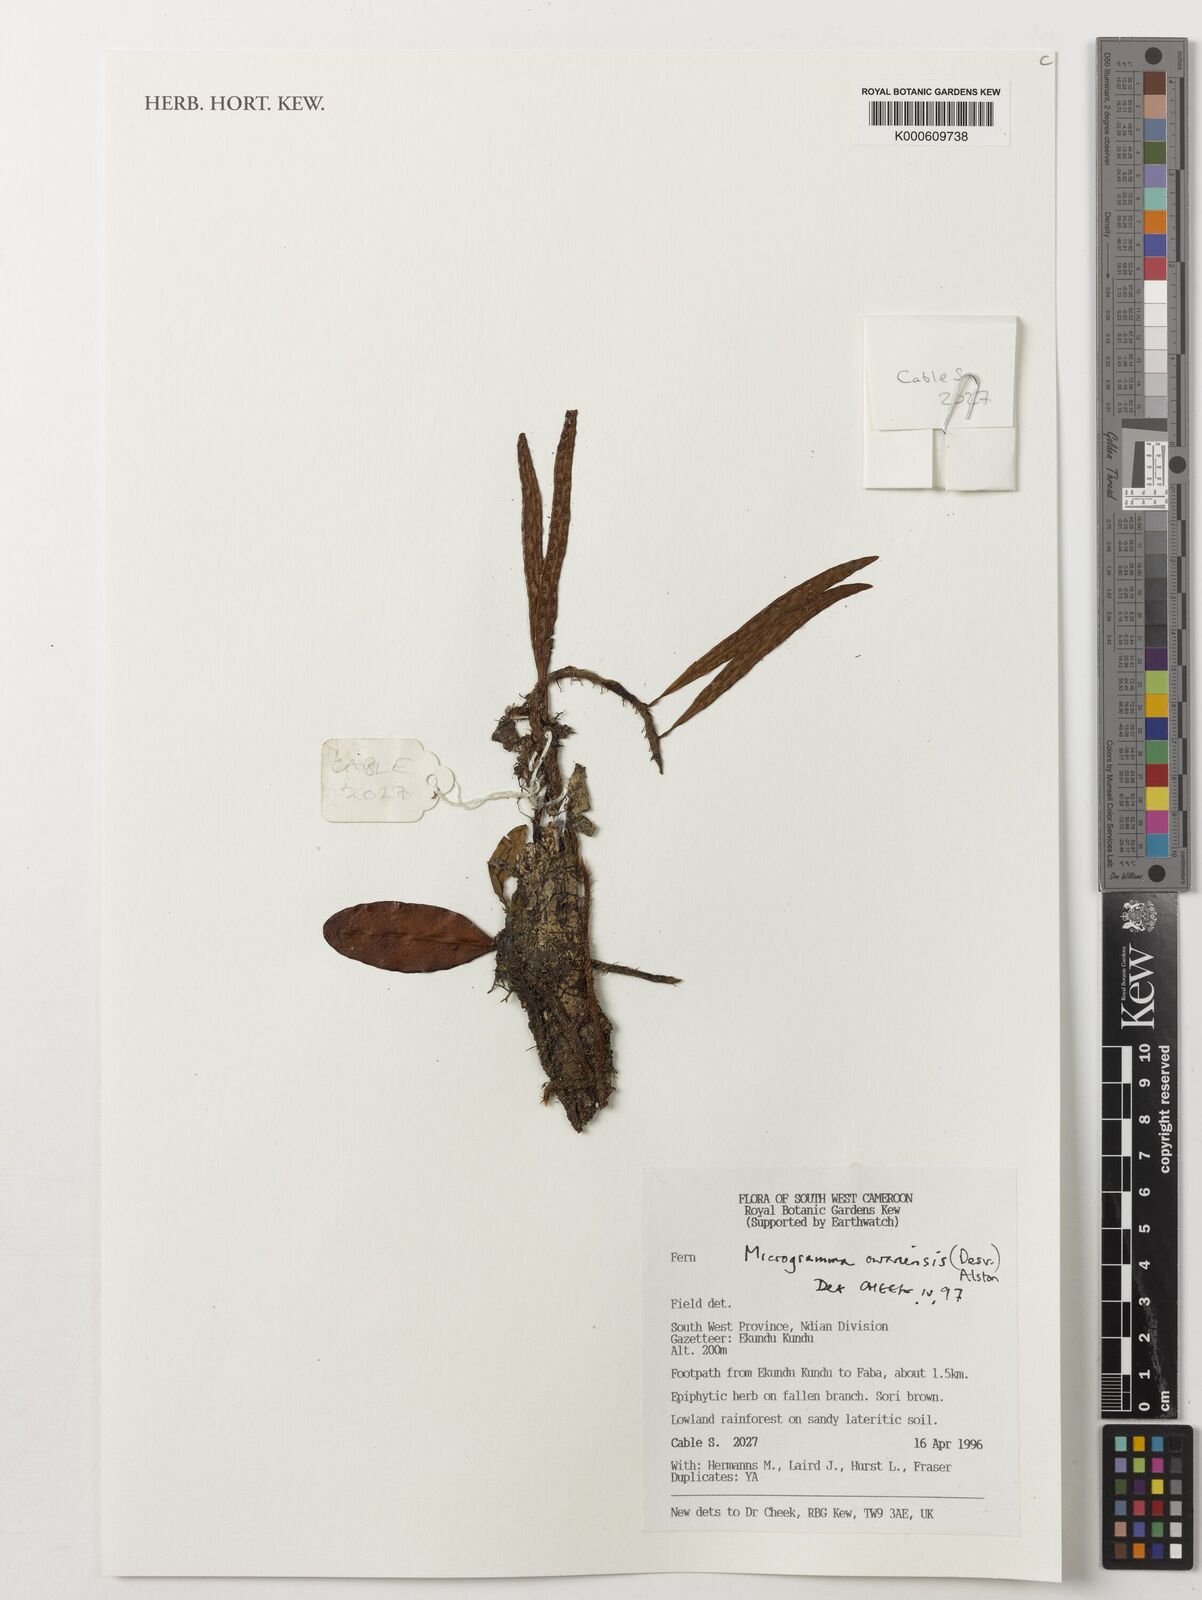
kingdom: Plantae
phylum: Tracheophyta
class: Polypodiopsida
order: Polypodiales
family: Polypodiaceae
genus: Microgramma
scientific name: Microgramma mauritiana
